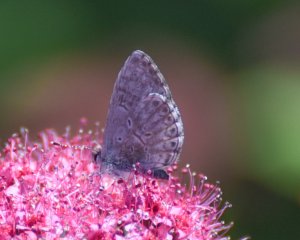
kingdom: Animalia
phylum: Arthropoda
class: Insecta
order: Lepidoptera
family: Lycaenidae
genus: Celastrina
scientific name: Celastrina
